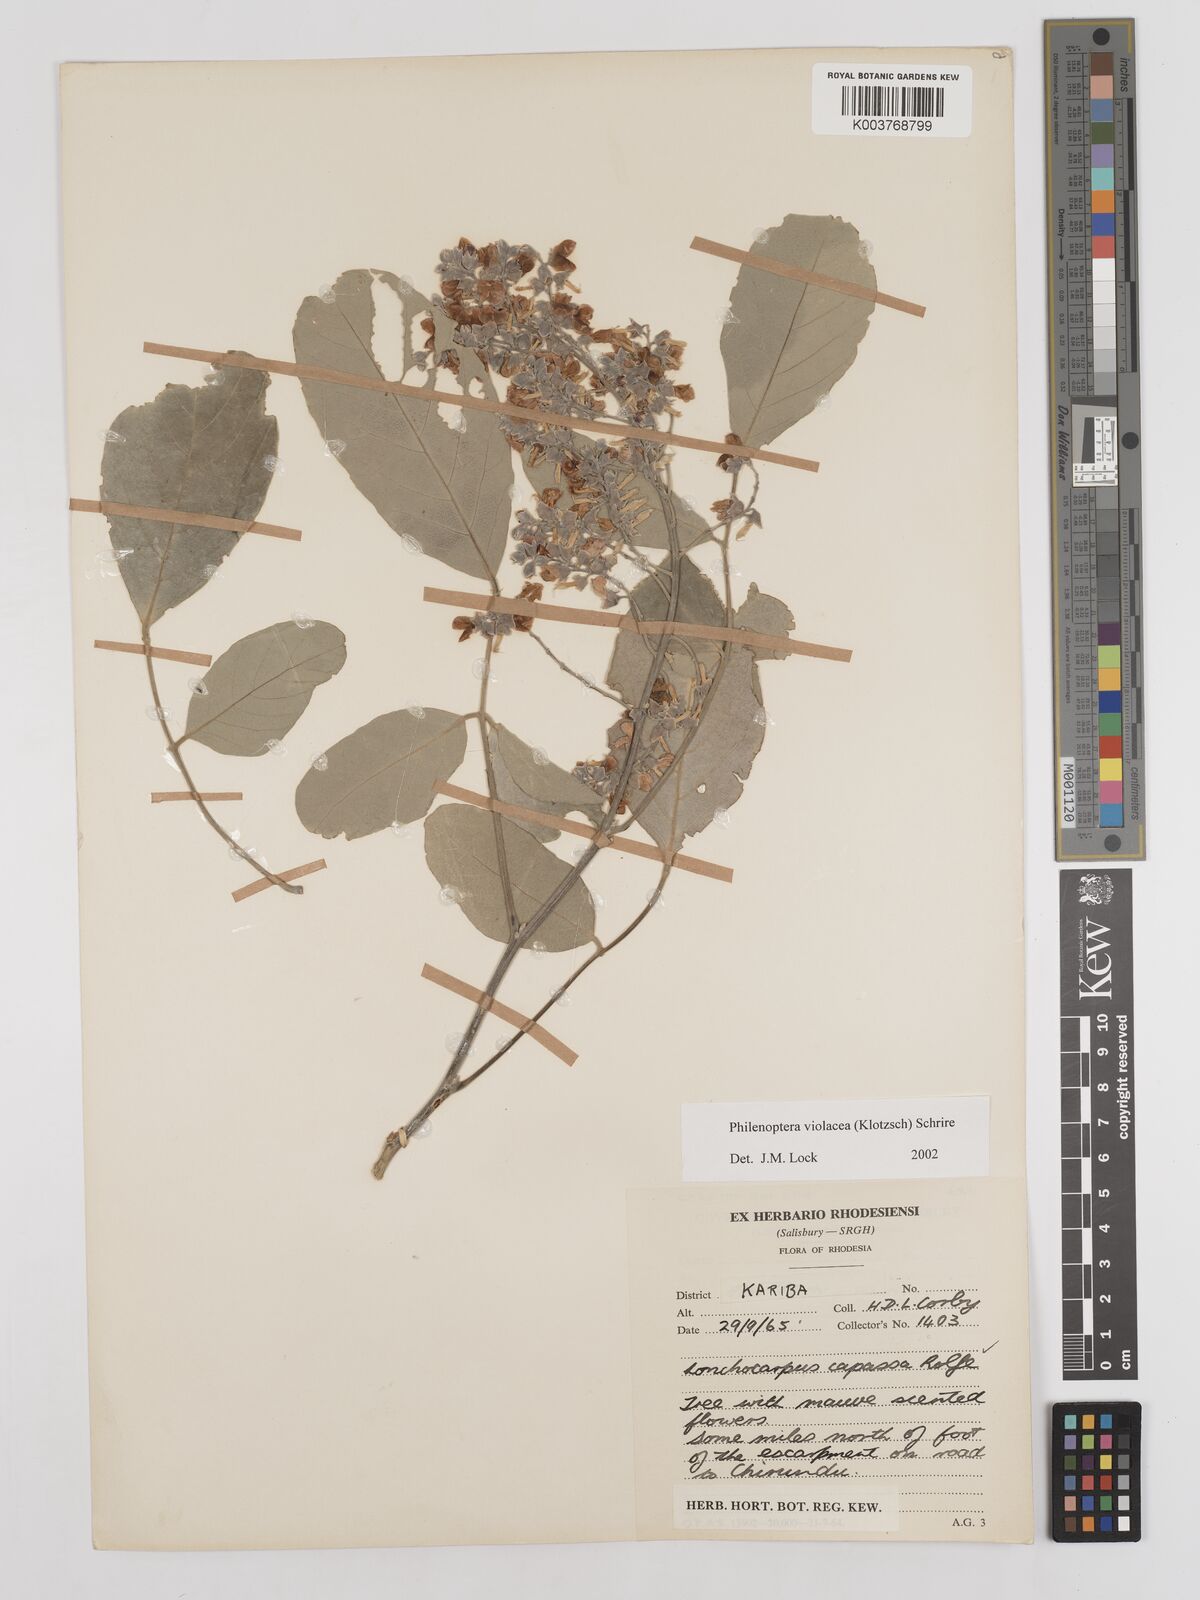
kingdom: Plantae
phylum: Tracheophyta
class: Magnoliopsida
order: Fabales
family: Fabaceae
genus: Philenoptera
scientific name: Philenoptera violacea
